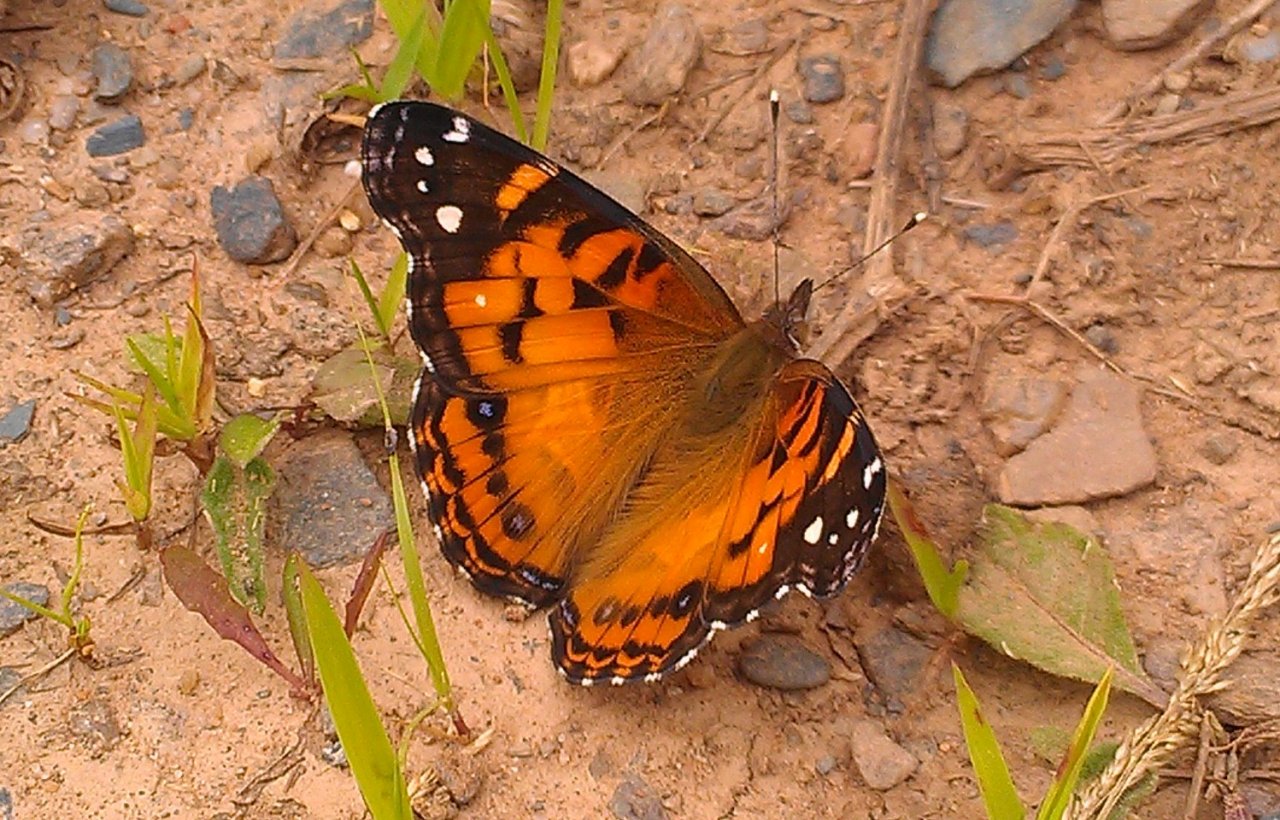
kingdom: Animalia
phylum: Arthropoda
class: Insecta
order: Lepidoptera
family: Nymphalidae
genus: Vanessa
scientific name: Vanessa virginiensis
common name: American Lady
